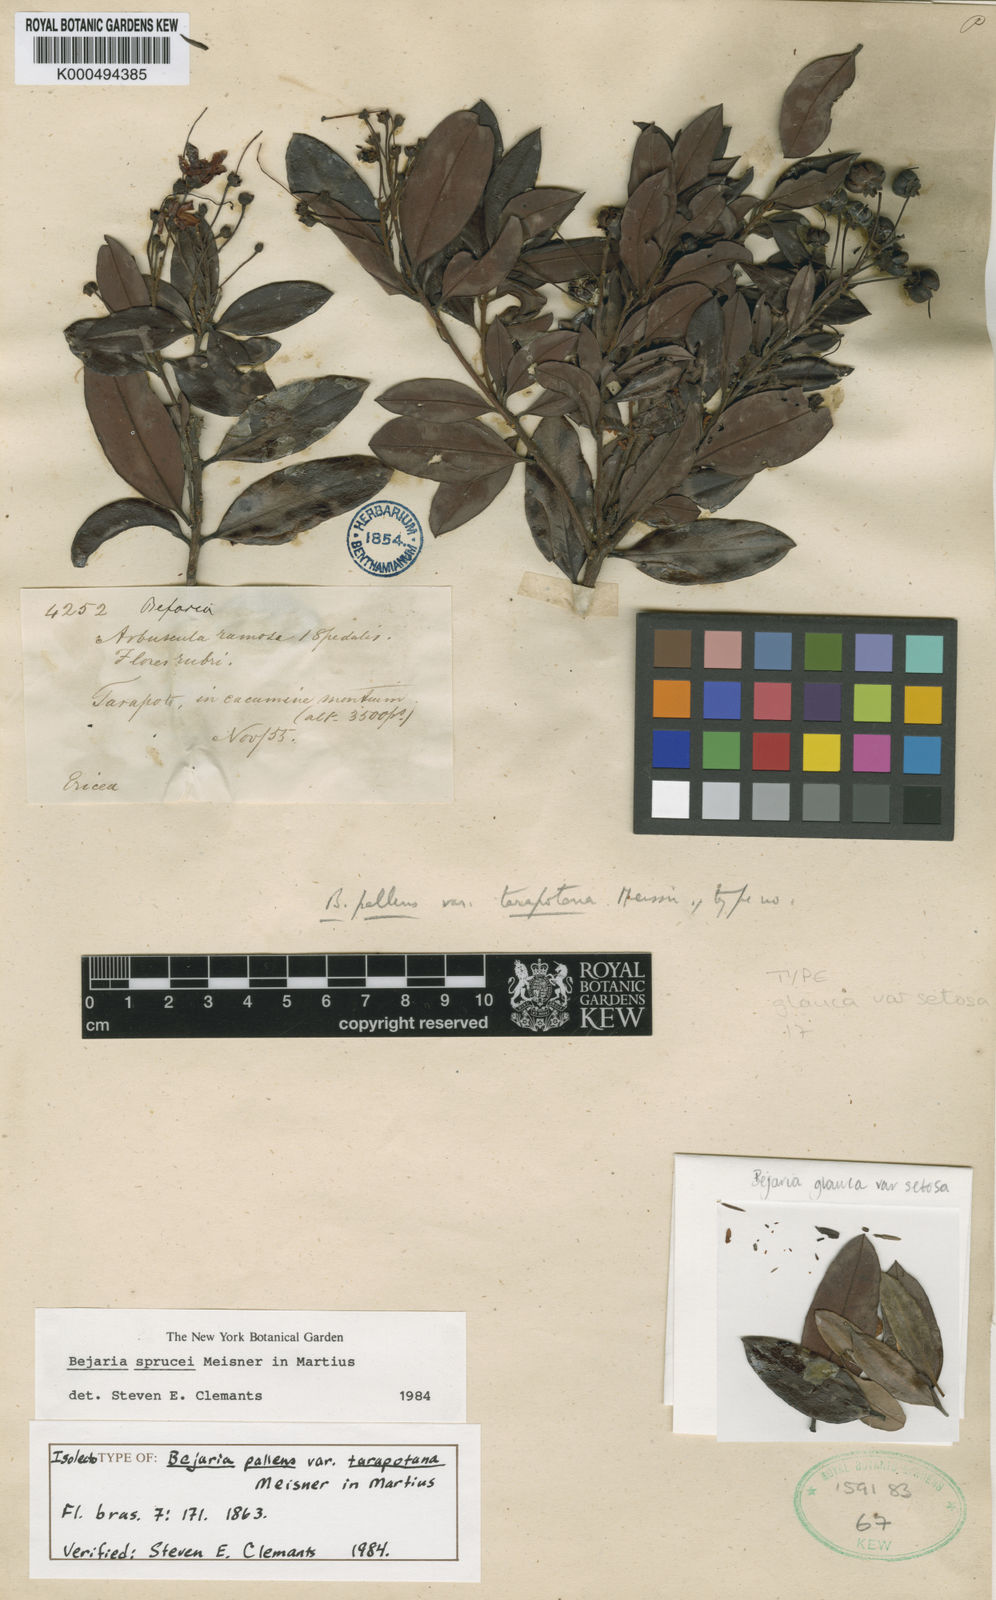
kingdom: Plantae
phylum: Tracheophyta
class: Magnoliopsida
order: Ericales
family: Ericaceae
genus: Bejaria
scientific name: Bejaria
